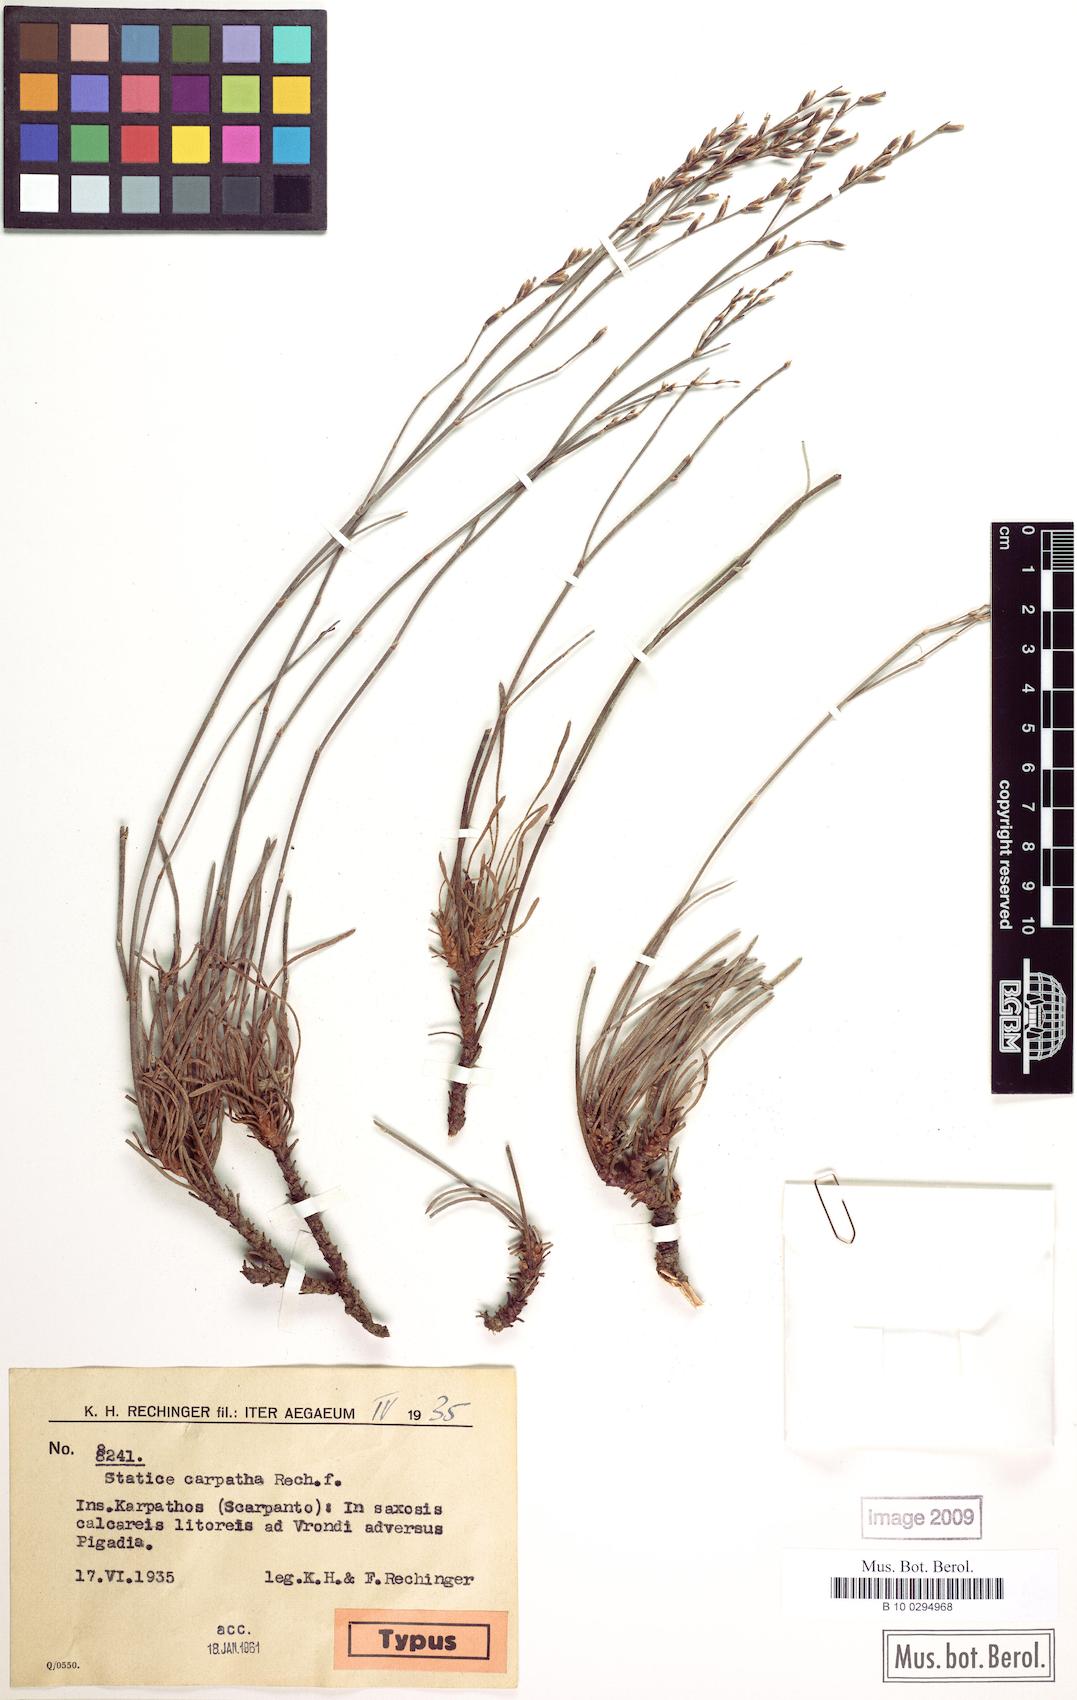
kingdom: Plantae
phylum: Tracheophyta
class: Magnoliopsida
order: Caryophyllales
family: Plumbaginaceae
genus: Limonium
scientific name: Limonium carpathum
